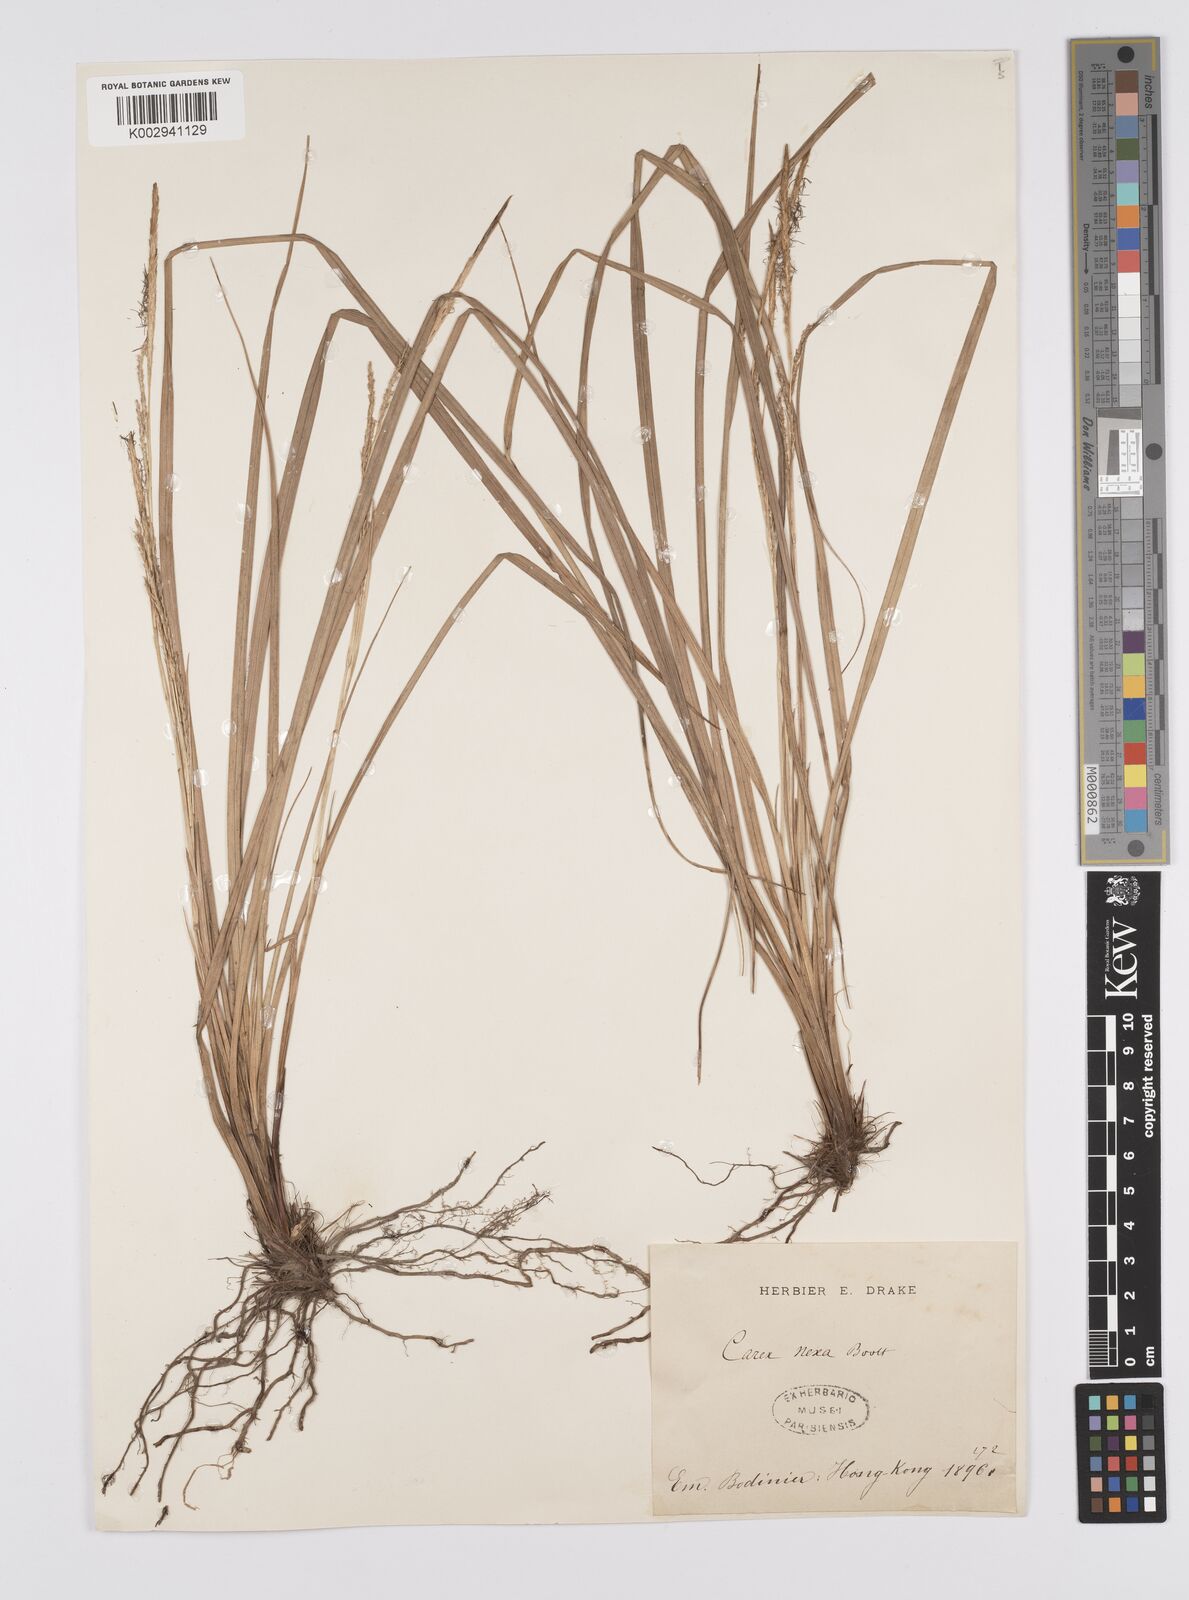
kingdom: Plantae
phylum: Tracheophyta
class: Liliopsida
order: Poales
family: Cyperaceae
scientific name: Cyperaceae
